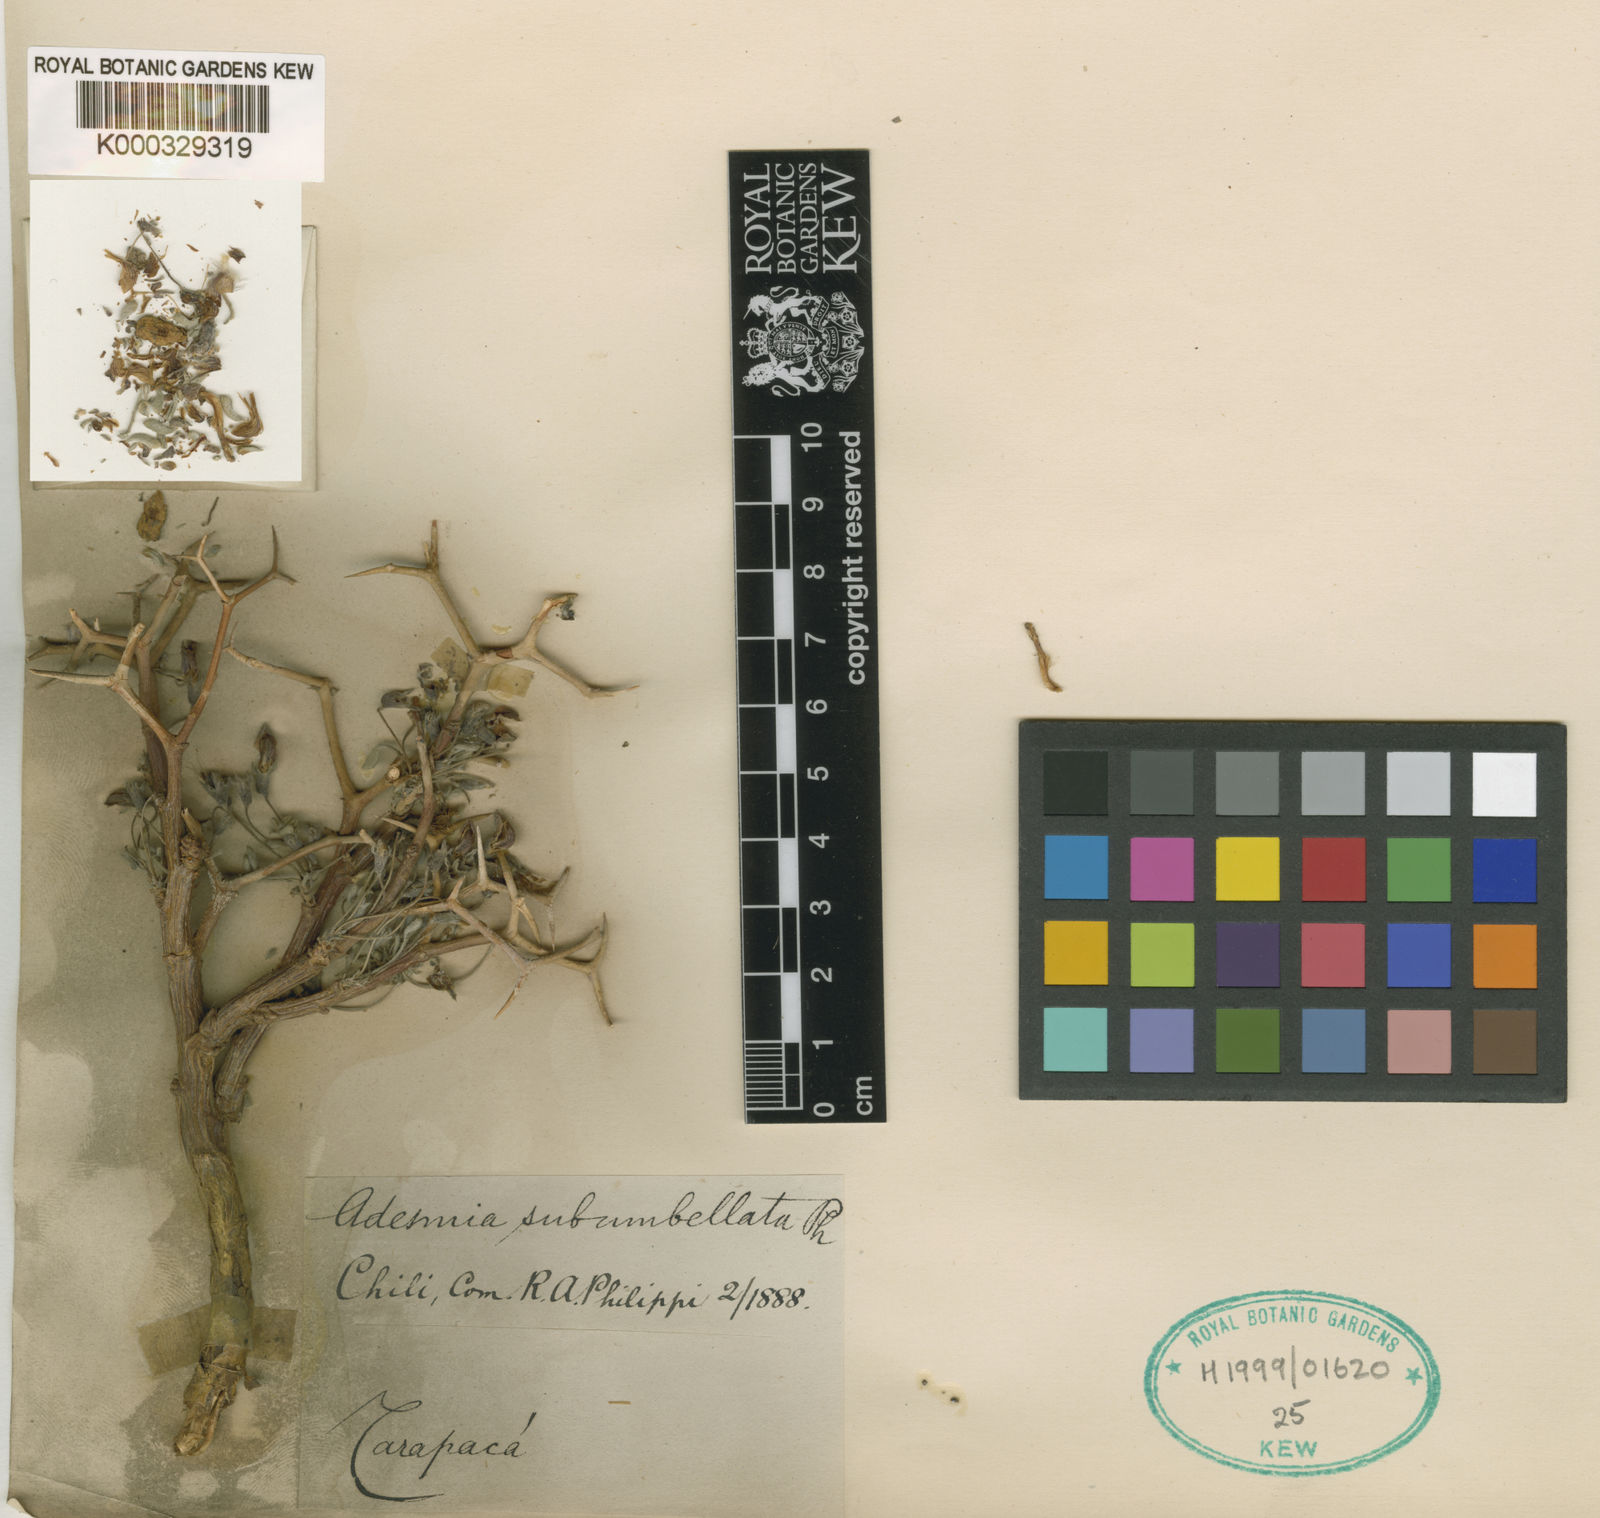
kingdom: Plantae
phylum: Tracheophyta
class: Magnoliopsida
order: Fabales
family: Fabaceae
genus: Adesmia
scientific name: Adesmia aegiceras
